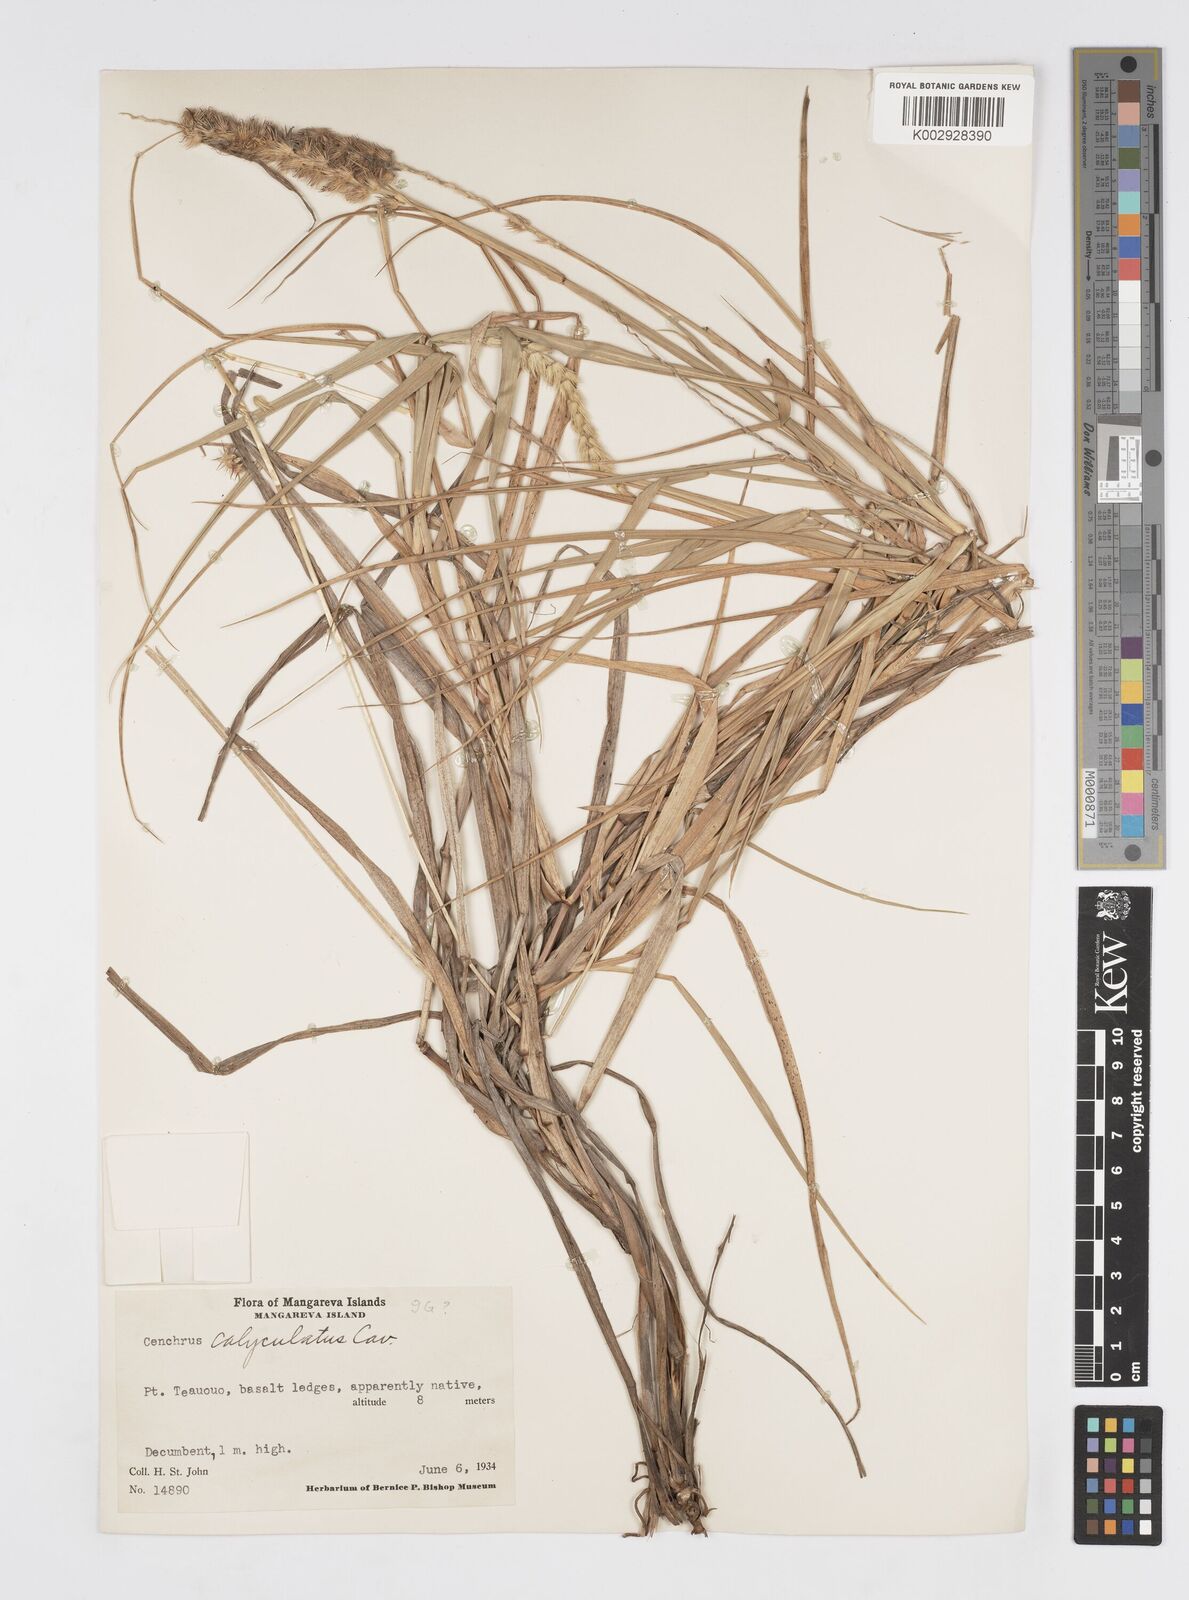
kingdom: Plantae
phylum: Tracheophyta
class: Liliopsida
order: Poales
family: Poaceae
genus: Cenchrus
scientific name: Cenchrus echinatus
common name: Southern sandbur
